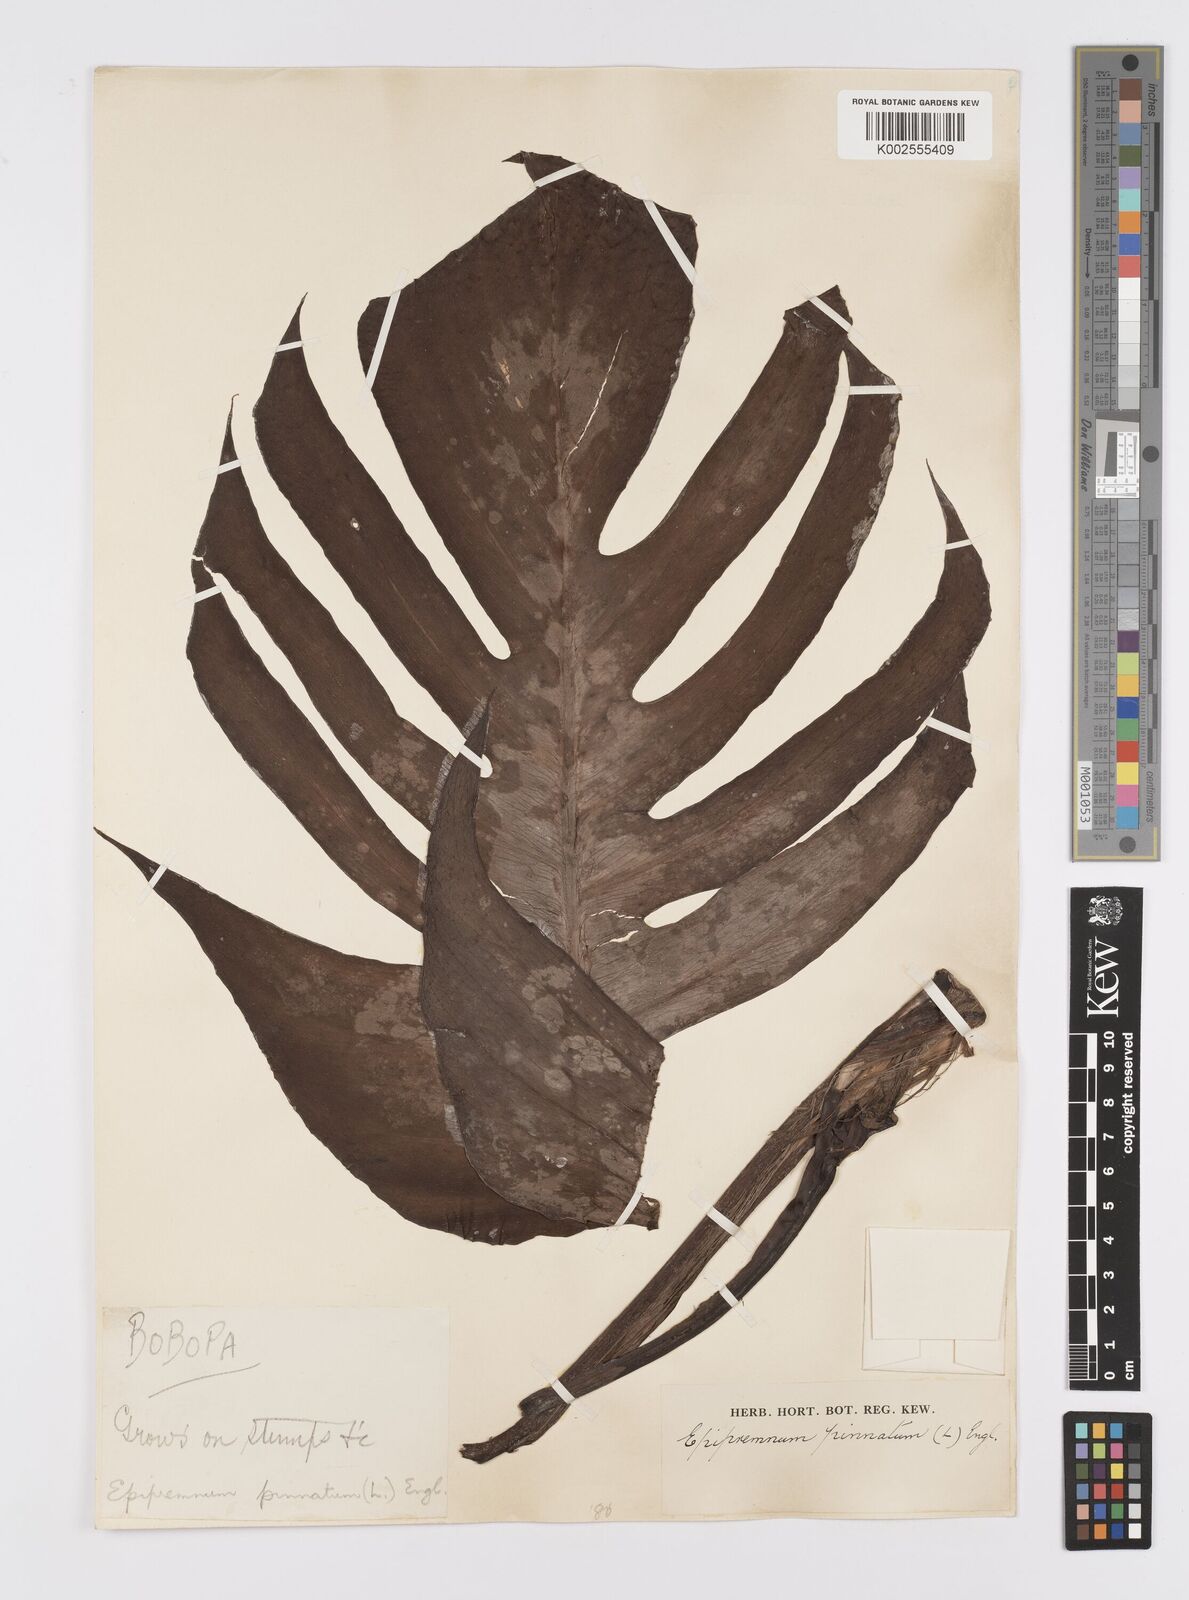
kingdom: Plantae
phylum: Tracheophyta
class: Liliopsida
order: Alismatales
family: Araceae
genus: Epipremnum
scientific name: Epipremnum pinnatum
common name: Centipede tongavine
